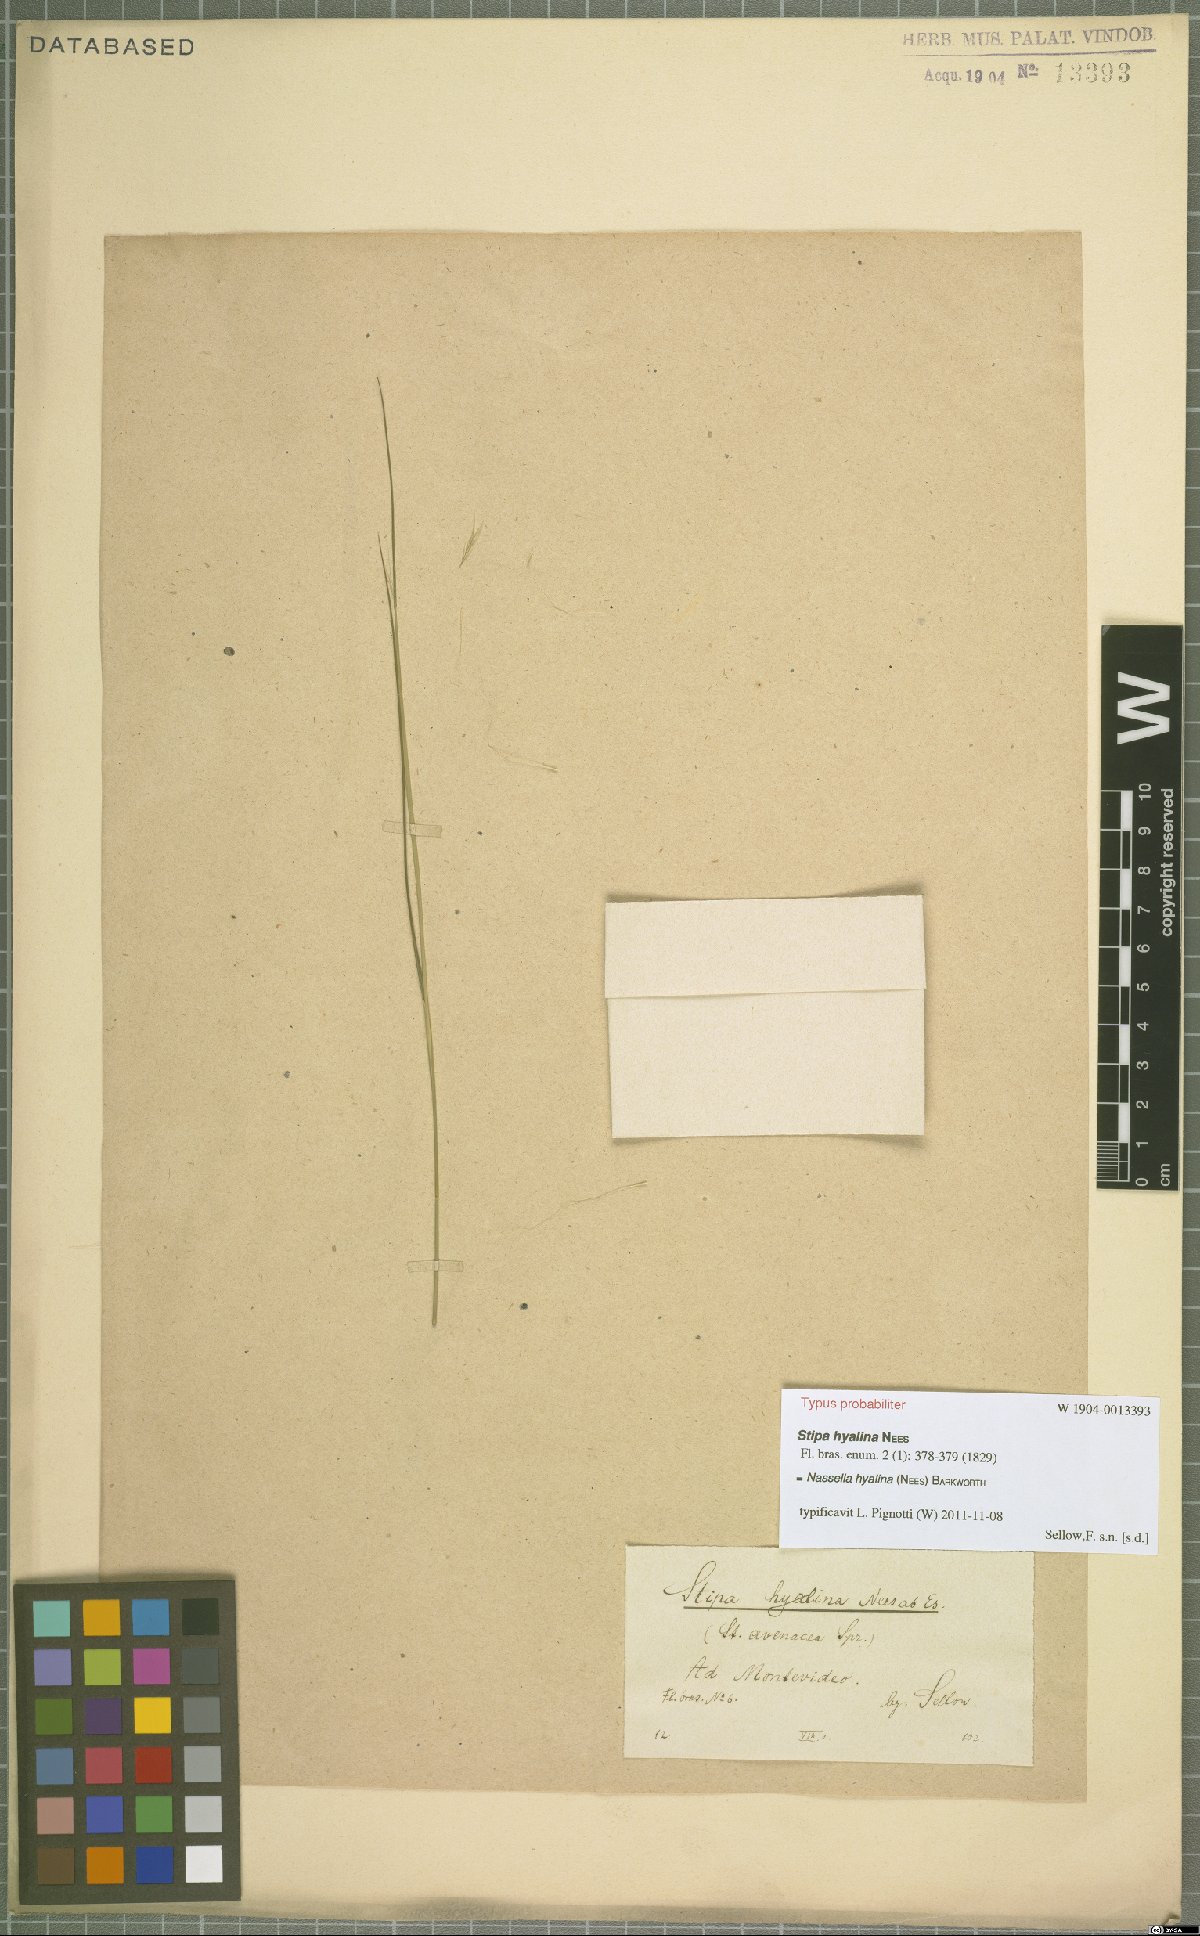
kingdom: Plantae
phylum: Tracheophyta
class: Liliopsida
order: Poales
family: Poaceae
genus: Nassella
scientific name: Nassella hyalina
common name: Spear grass
